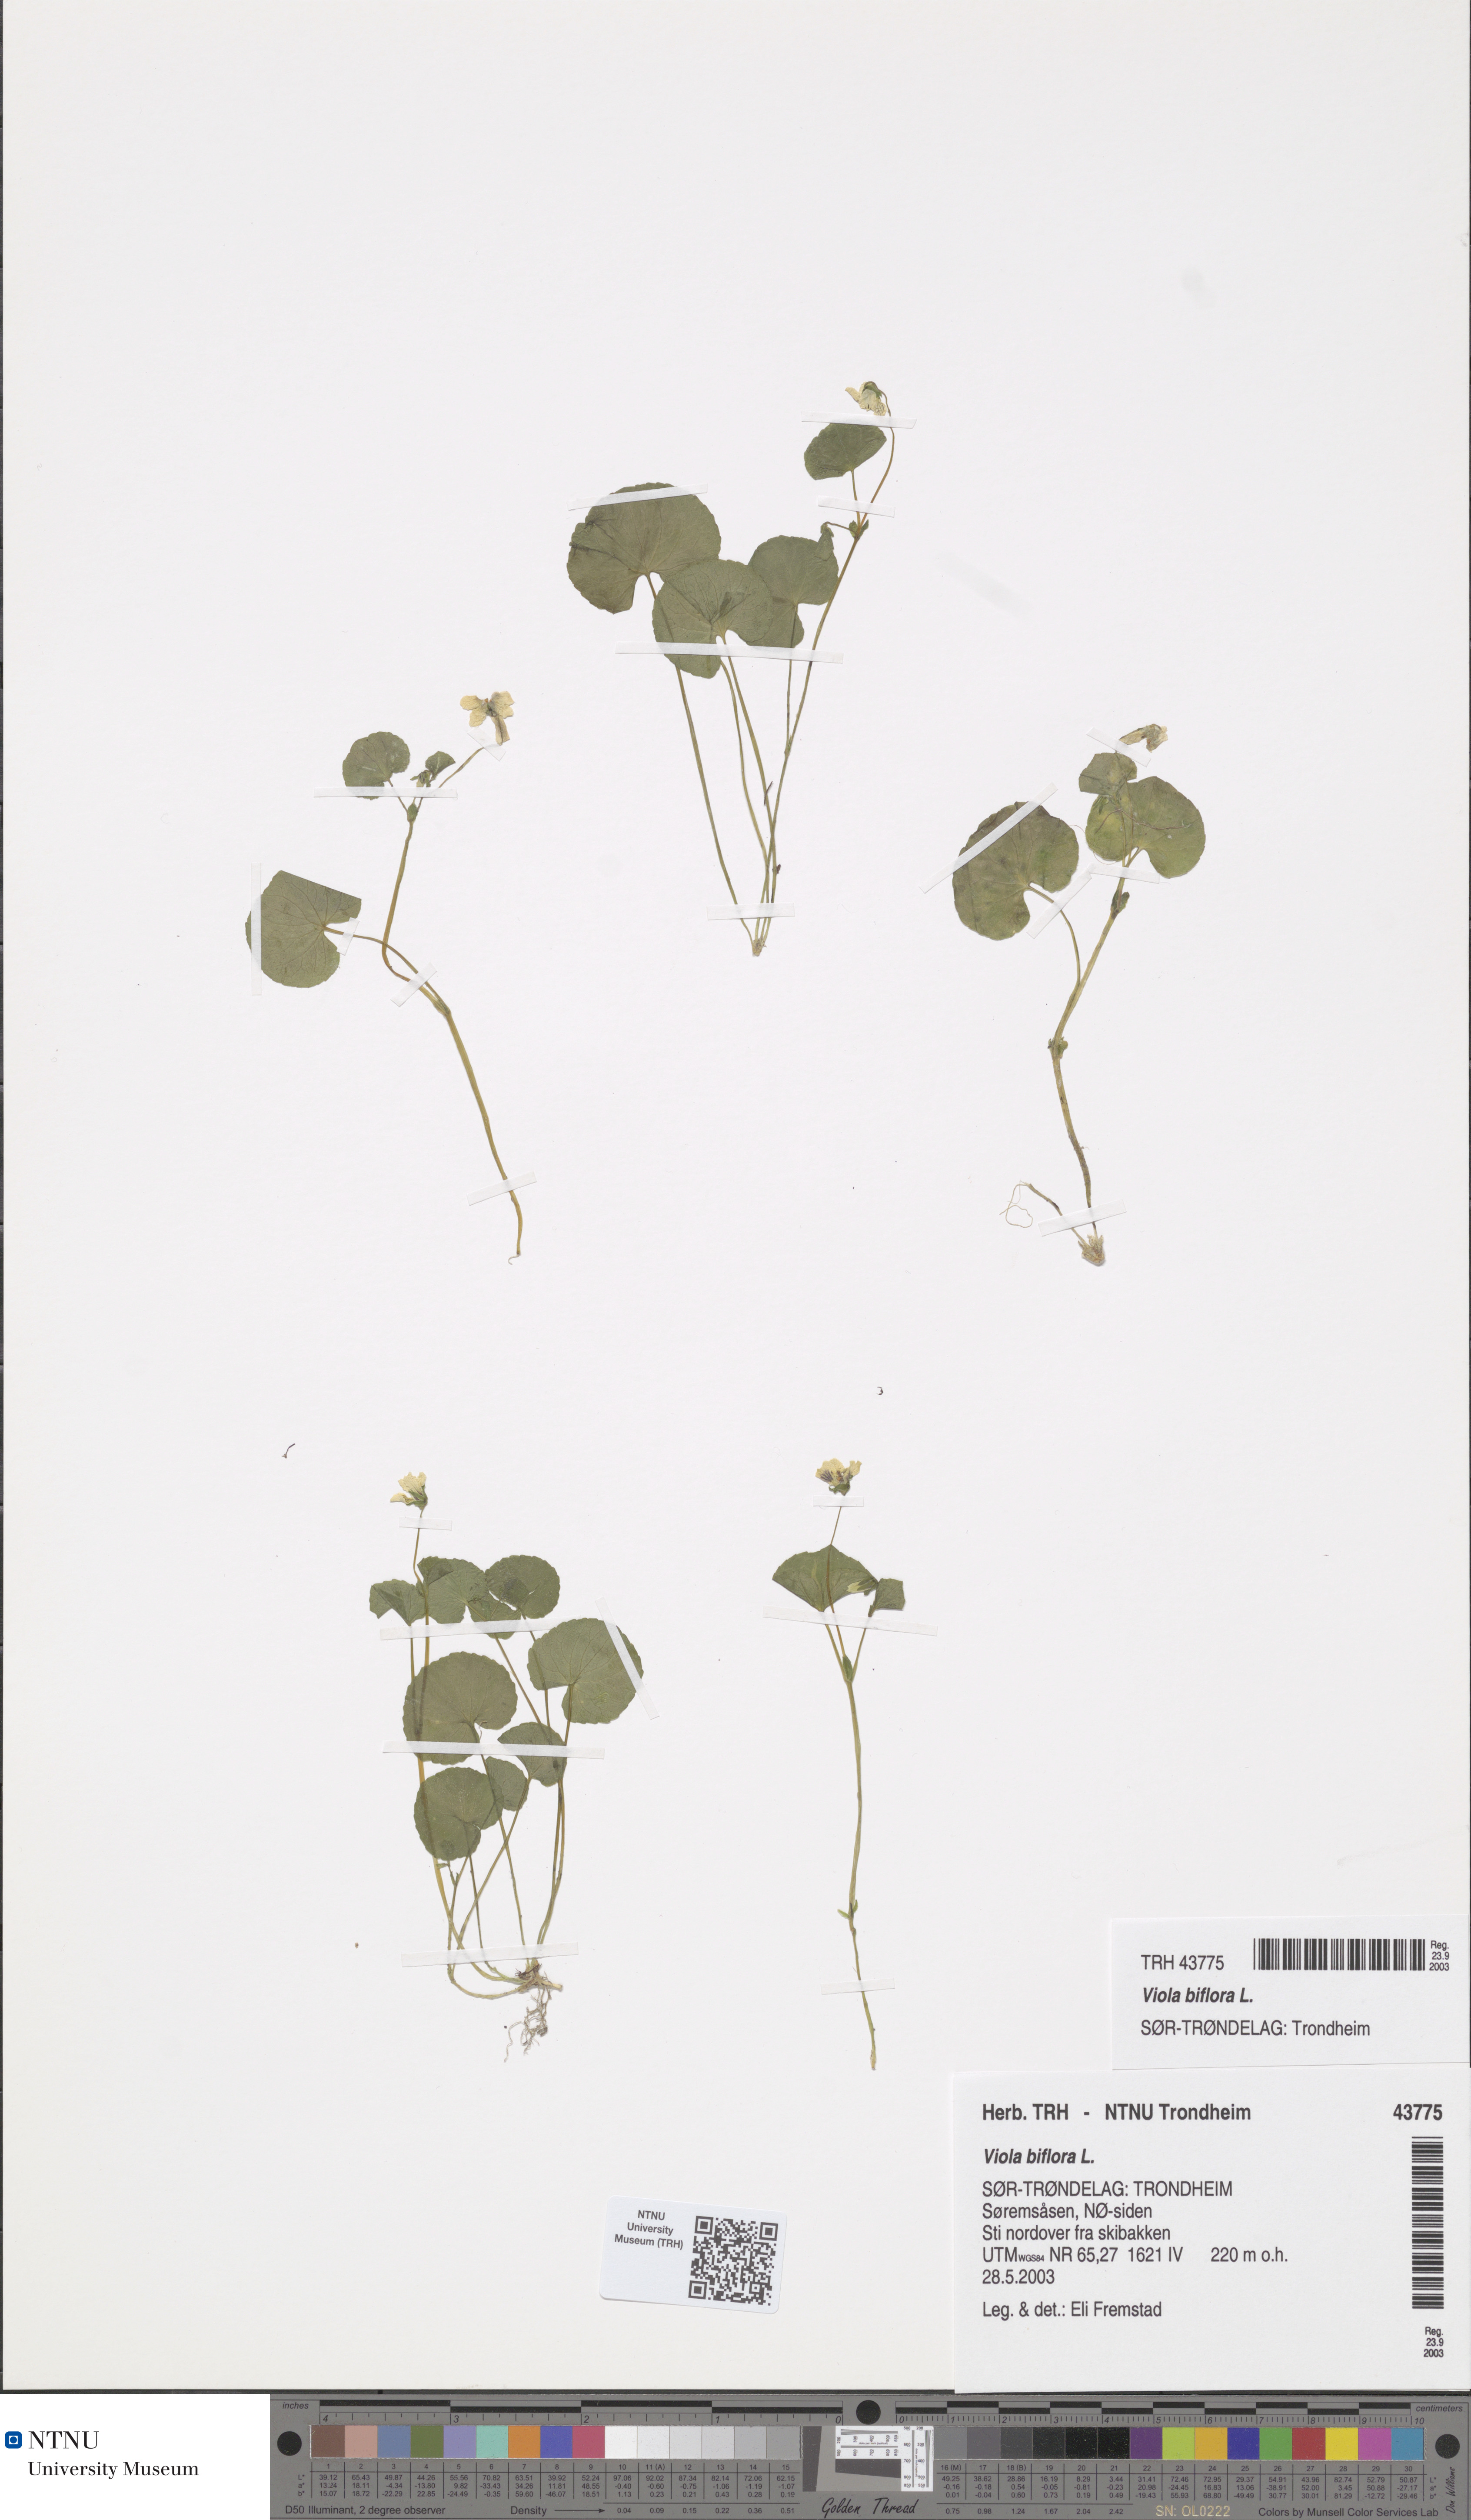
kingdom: Plantae
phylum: Tracheophyta
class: Magnoliopsida
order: Malpighiales
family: Violaceae
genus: Viola
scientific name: Viola biflora
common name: Alpine yellow violet
